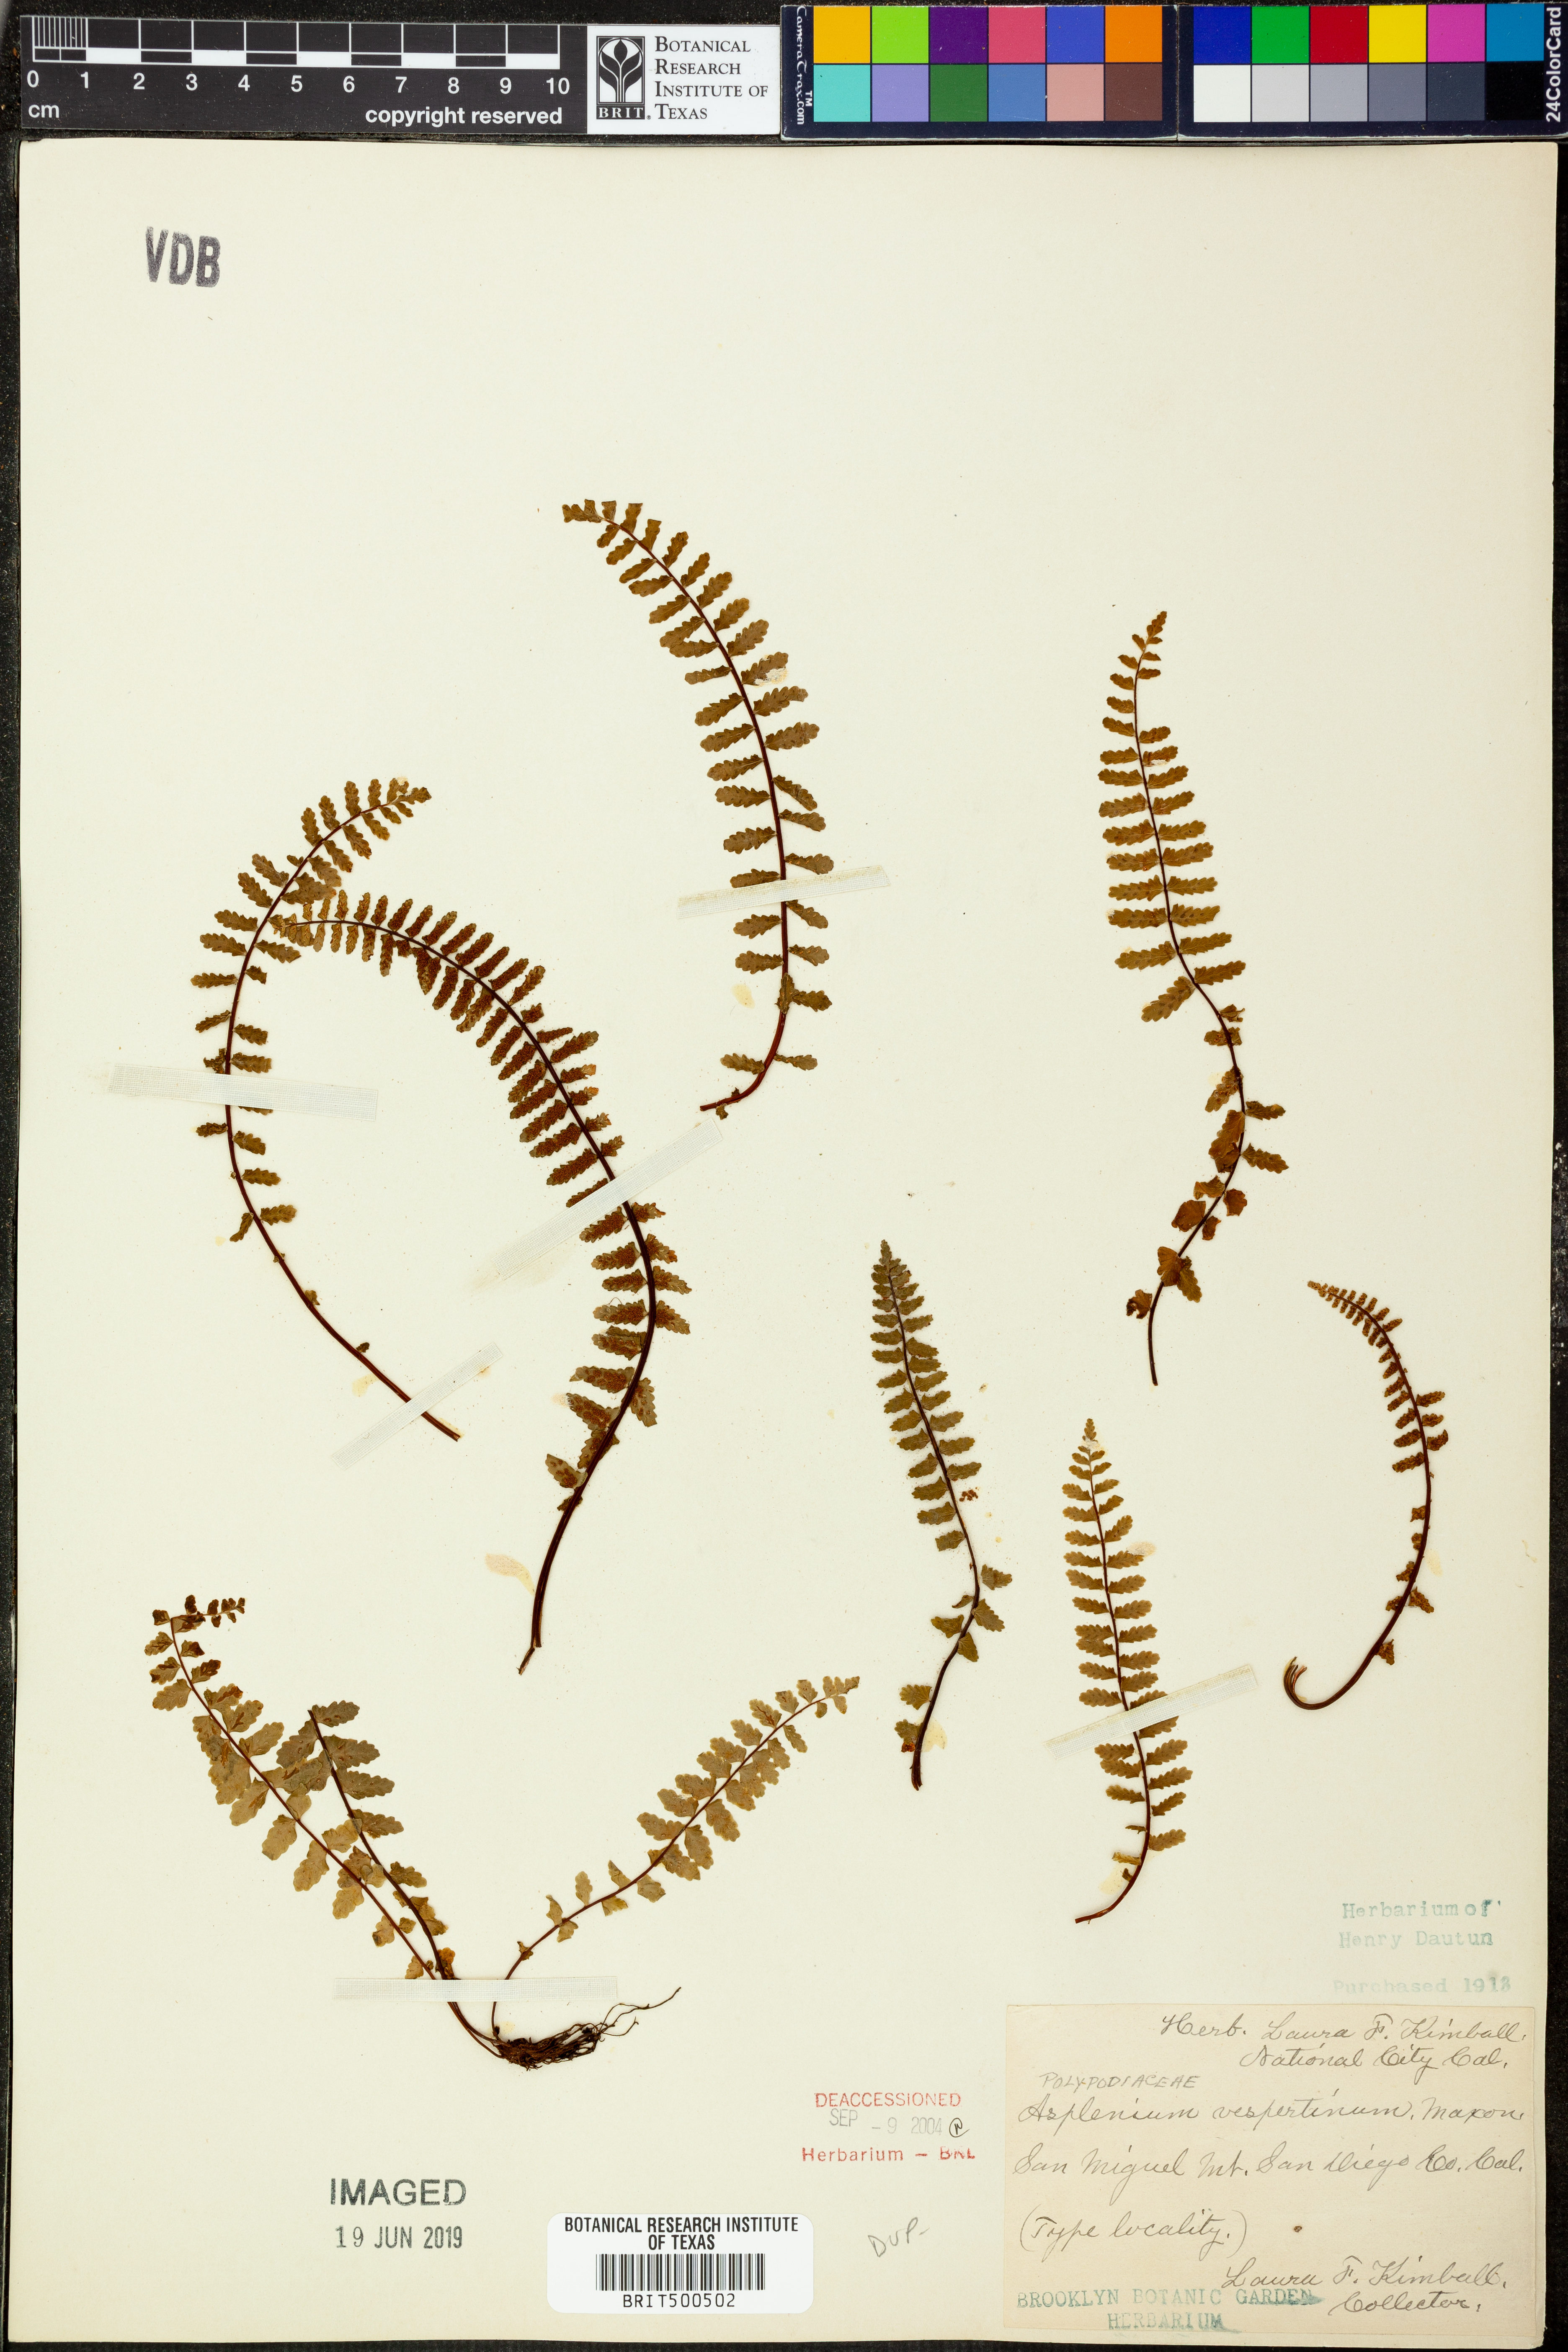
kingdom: Plantae
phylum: Tracheophyta
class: Polypodiopsida
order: Polypodiales
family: Aspleniaceae
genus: Asplenium
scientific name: Asplenium vespertinum
